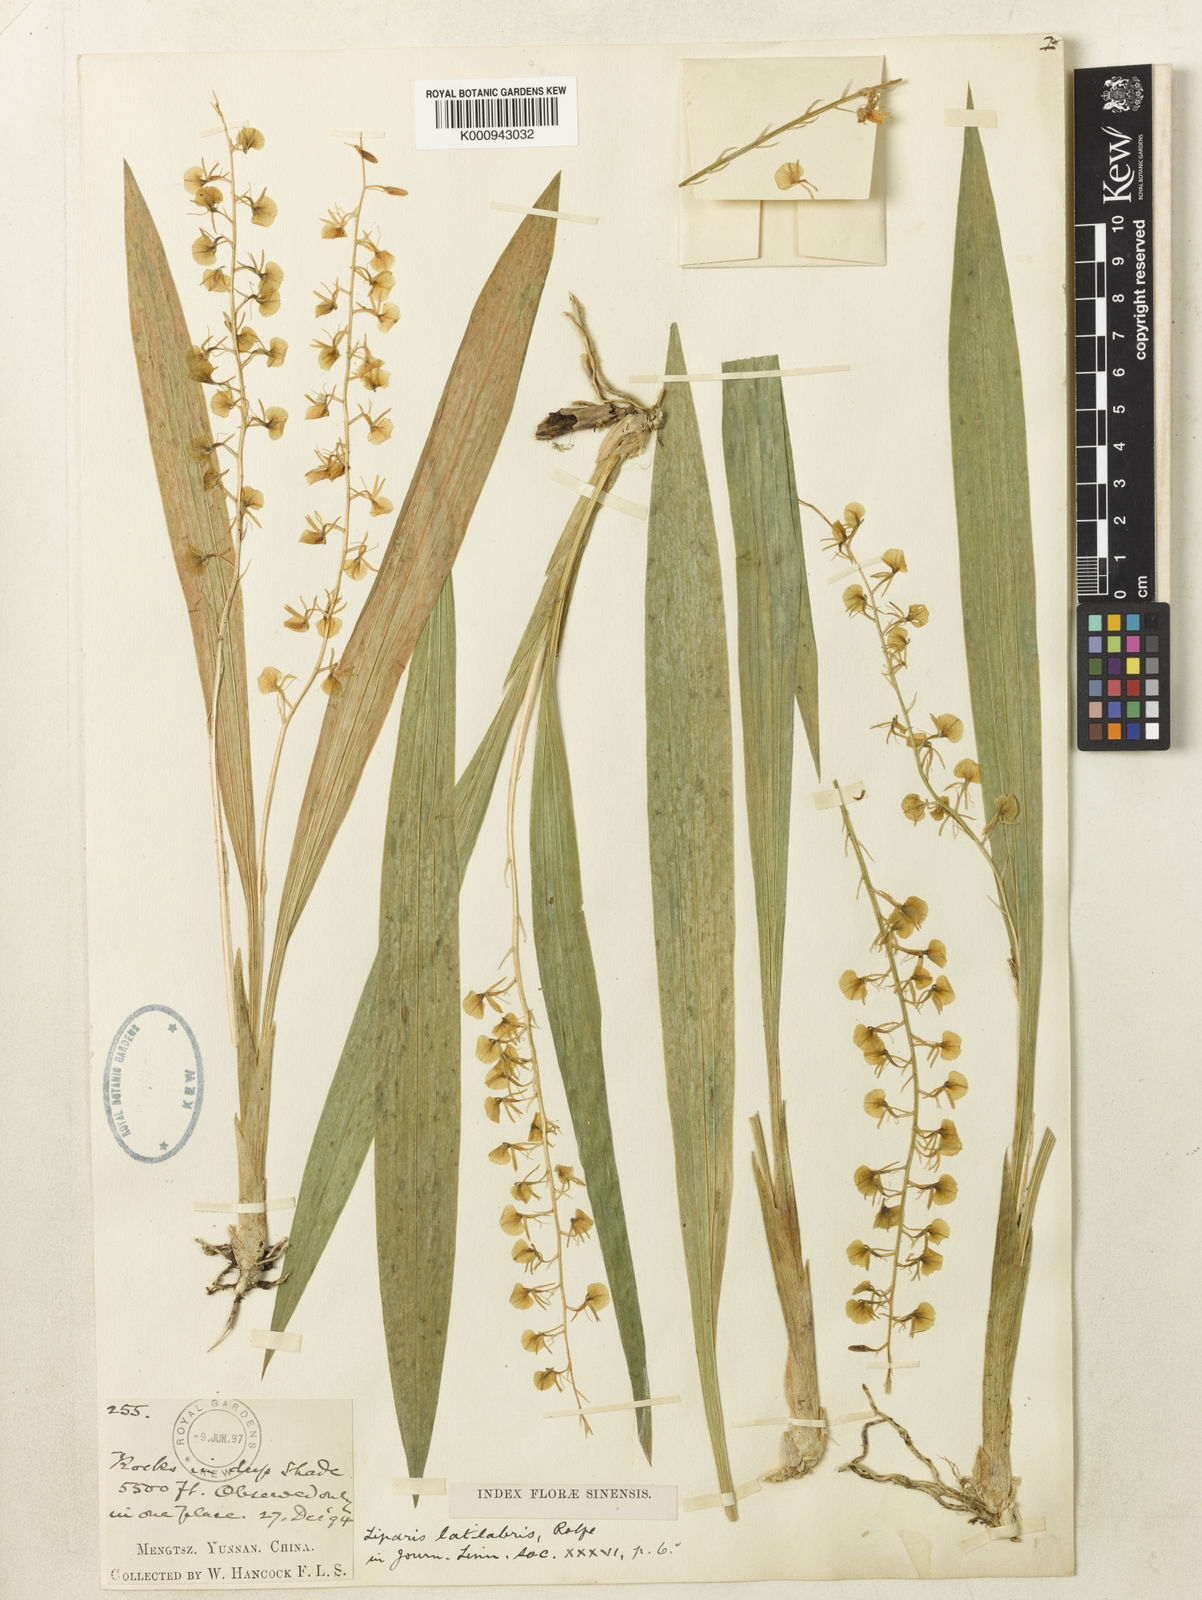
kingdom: Plantae
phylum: Tracheophyta
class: Liliopsida
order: Asparagales
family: Orchidaceae
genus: Liparis
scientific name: Liparis latilabris
